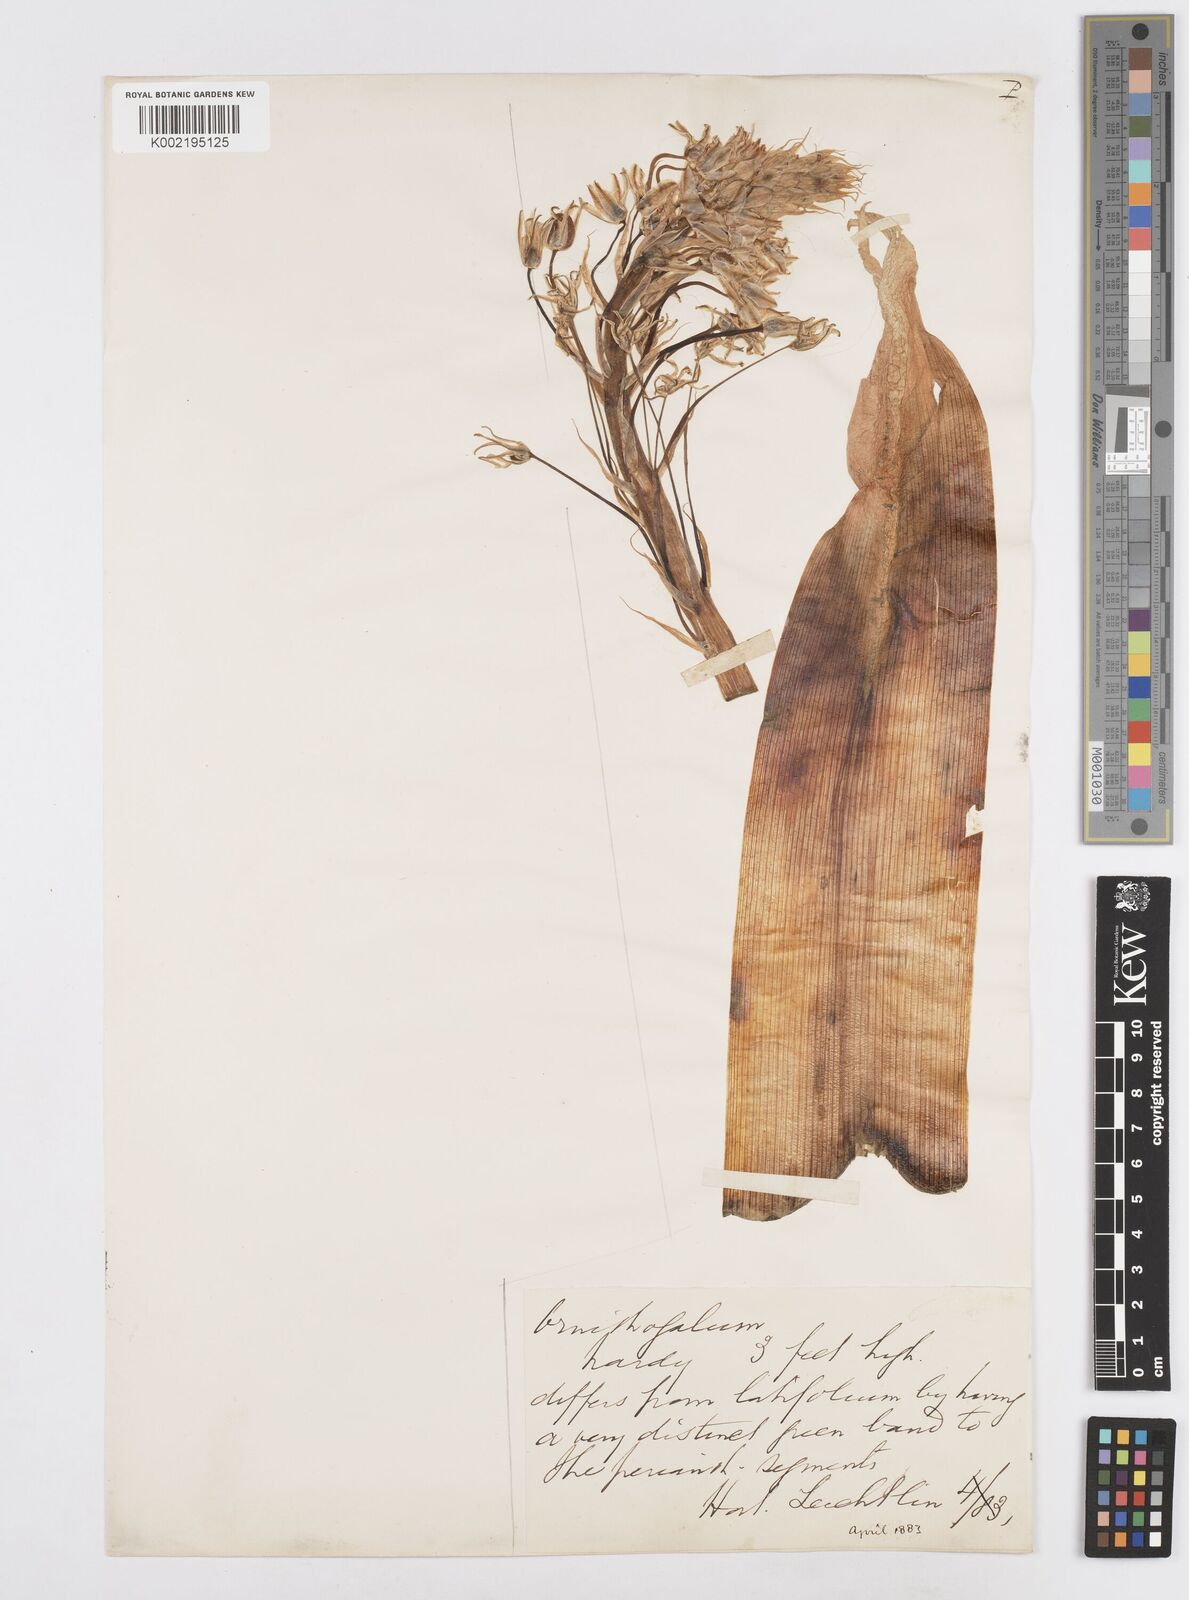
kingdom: Plantae
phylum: Tracheophyta
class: Liliopsida
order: Asparagales
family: Asparagaceae
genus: Ornithogalum
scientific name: Ornithogalum persicum
